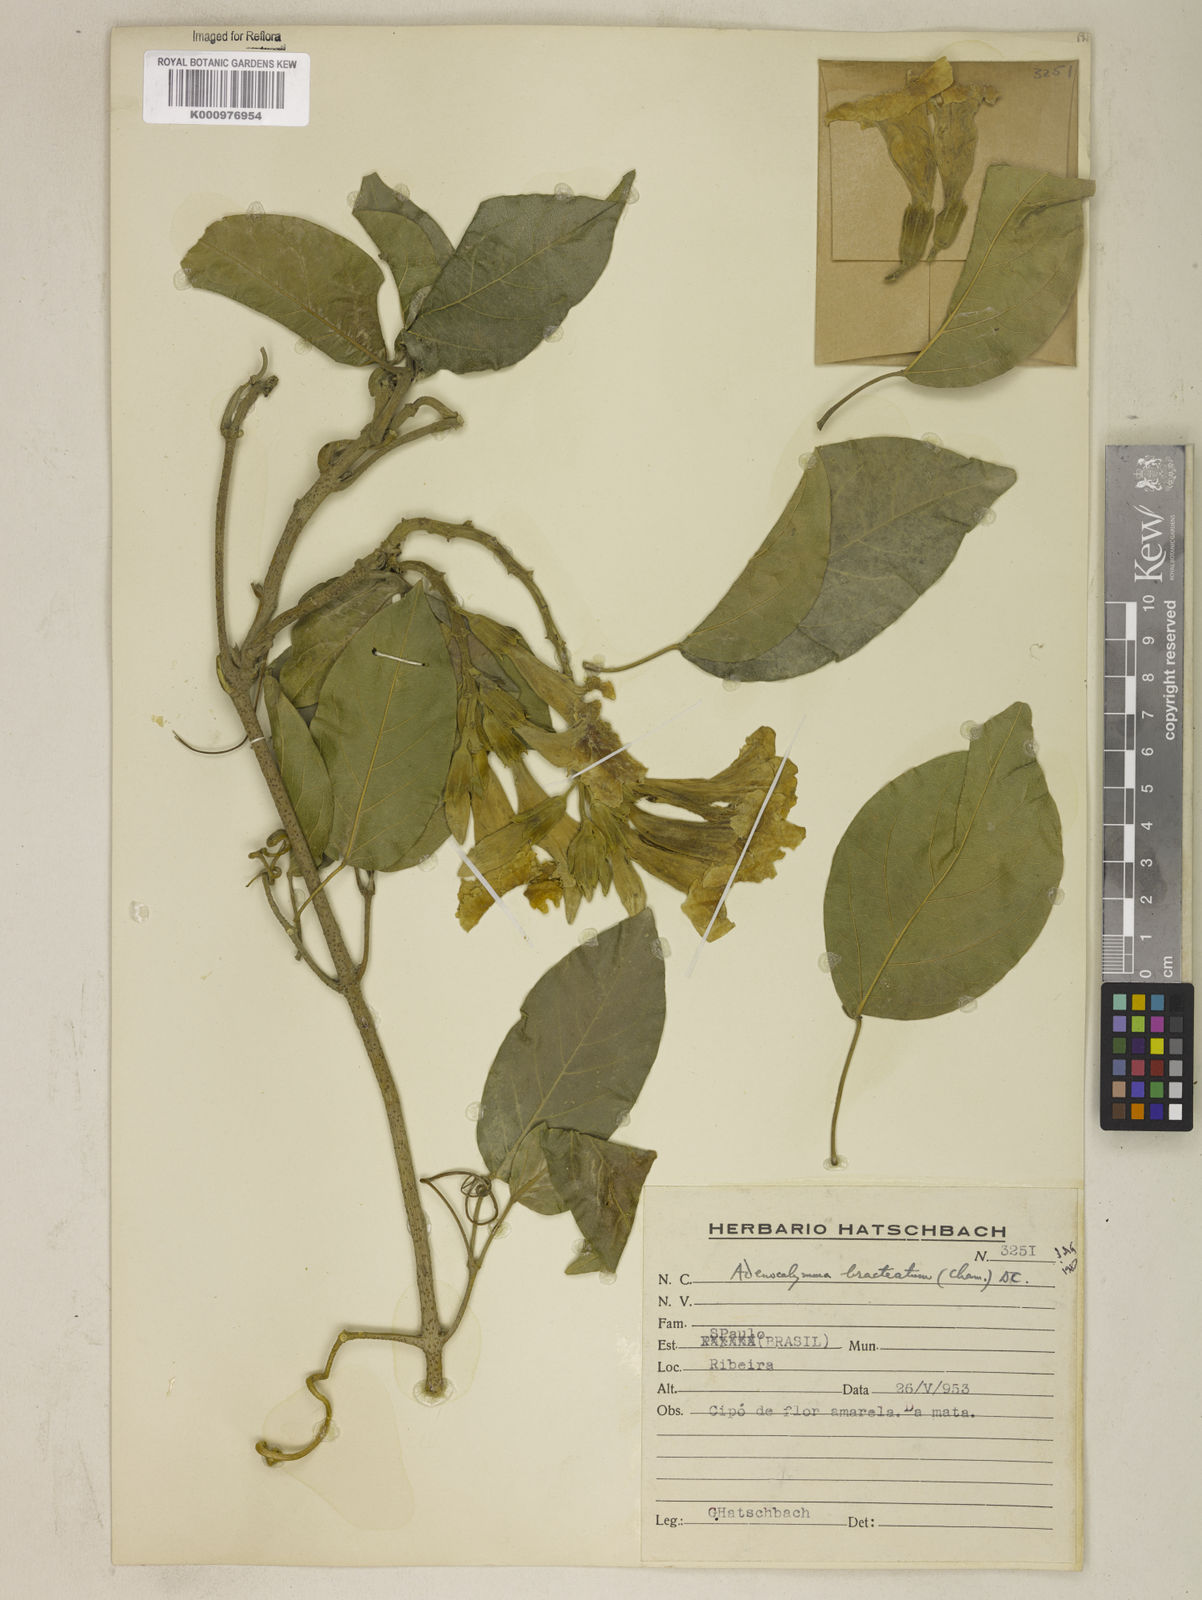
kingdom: Plantae
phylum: Tracheophyta
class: Magnoliopsida
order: Lamiales
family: Bignoniaceae
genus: Adenocalymma
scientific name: Adenocalymma bracteatum
